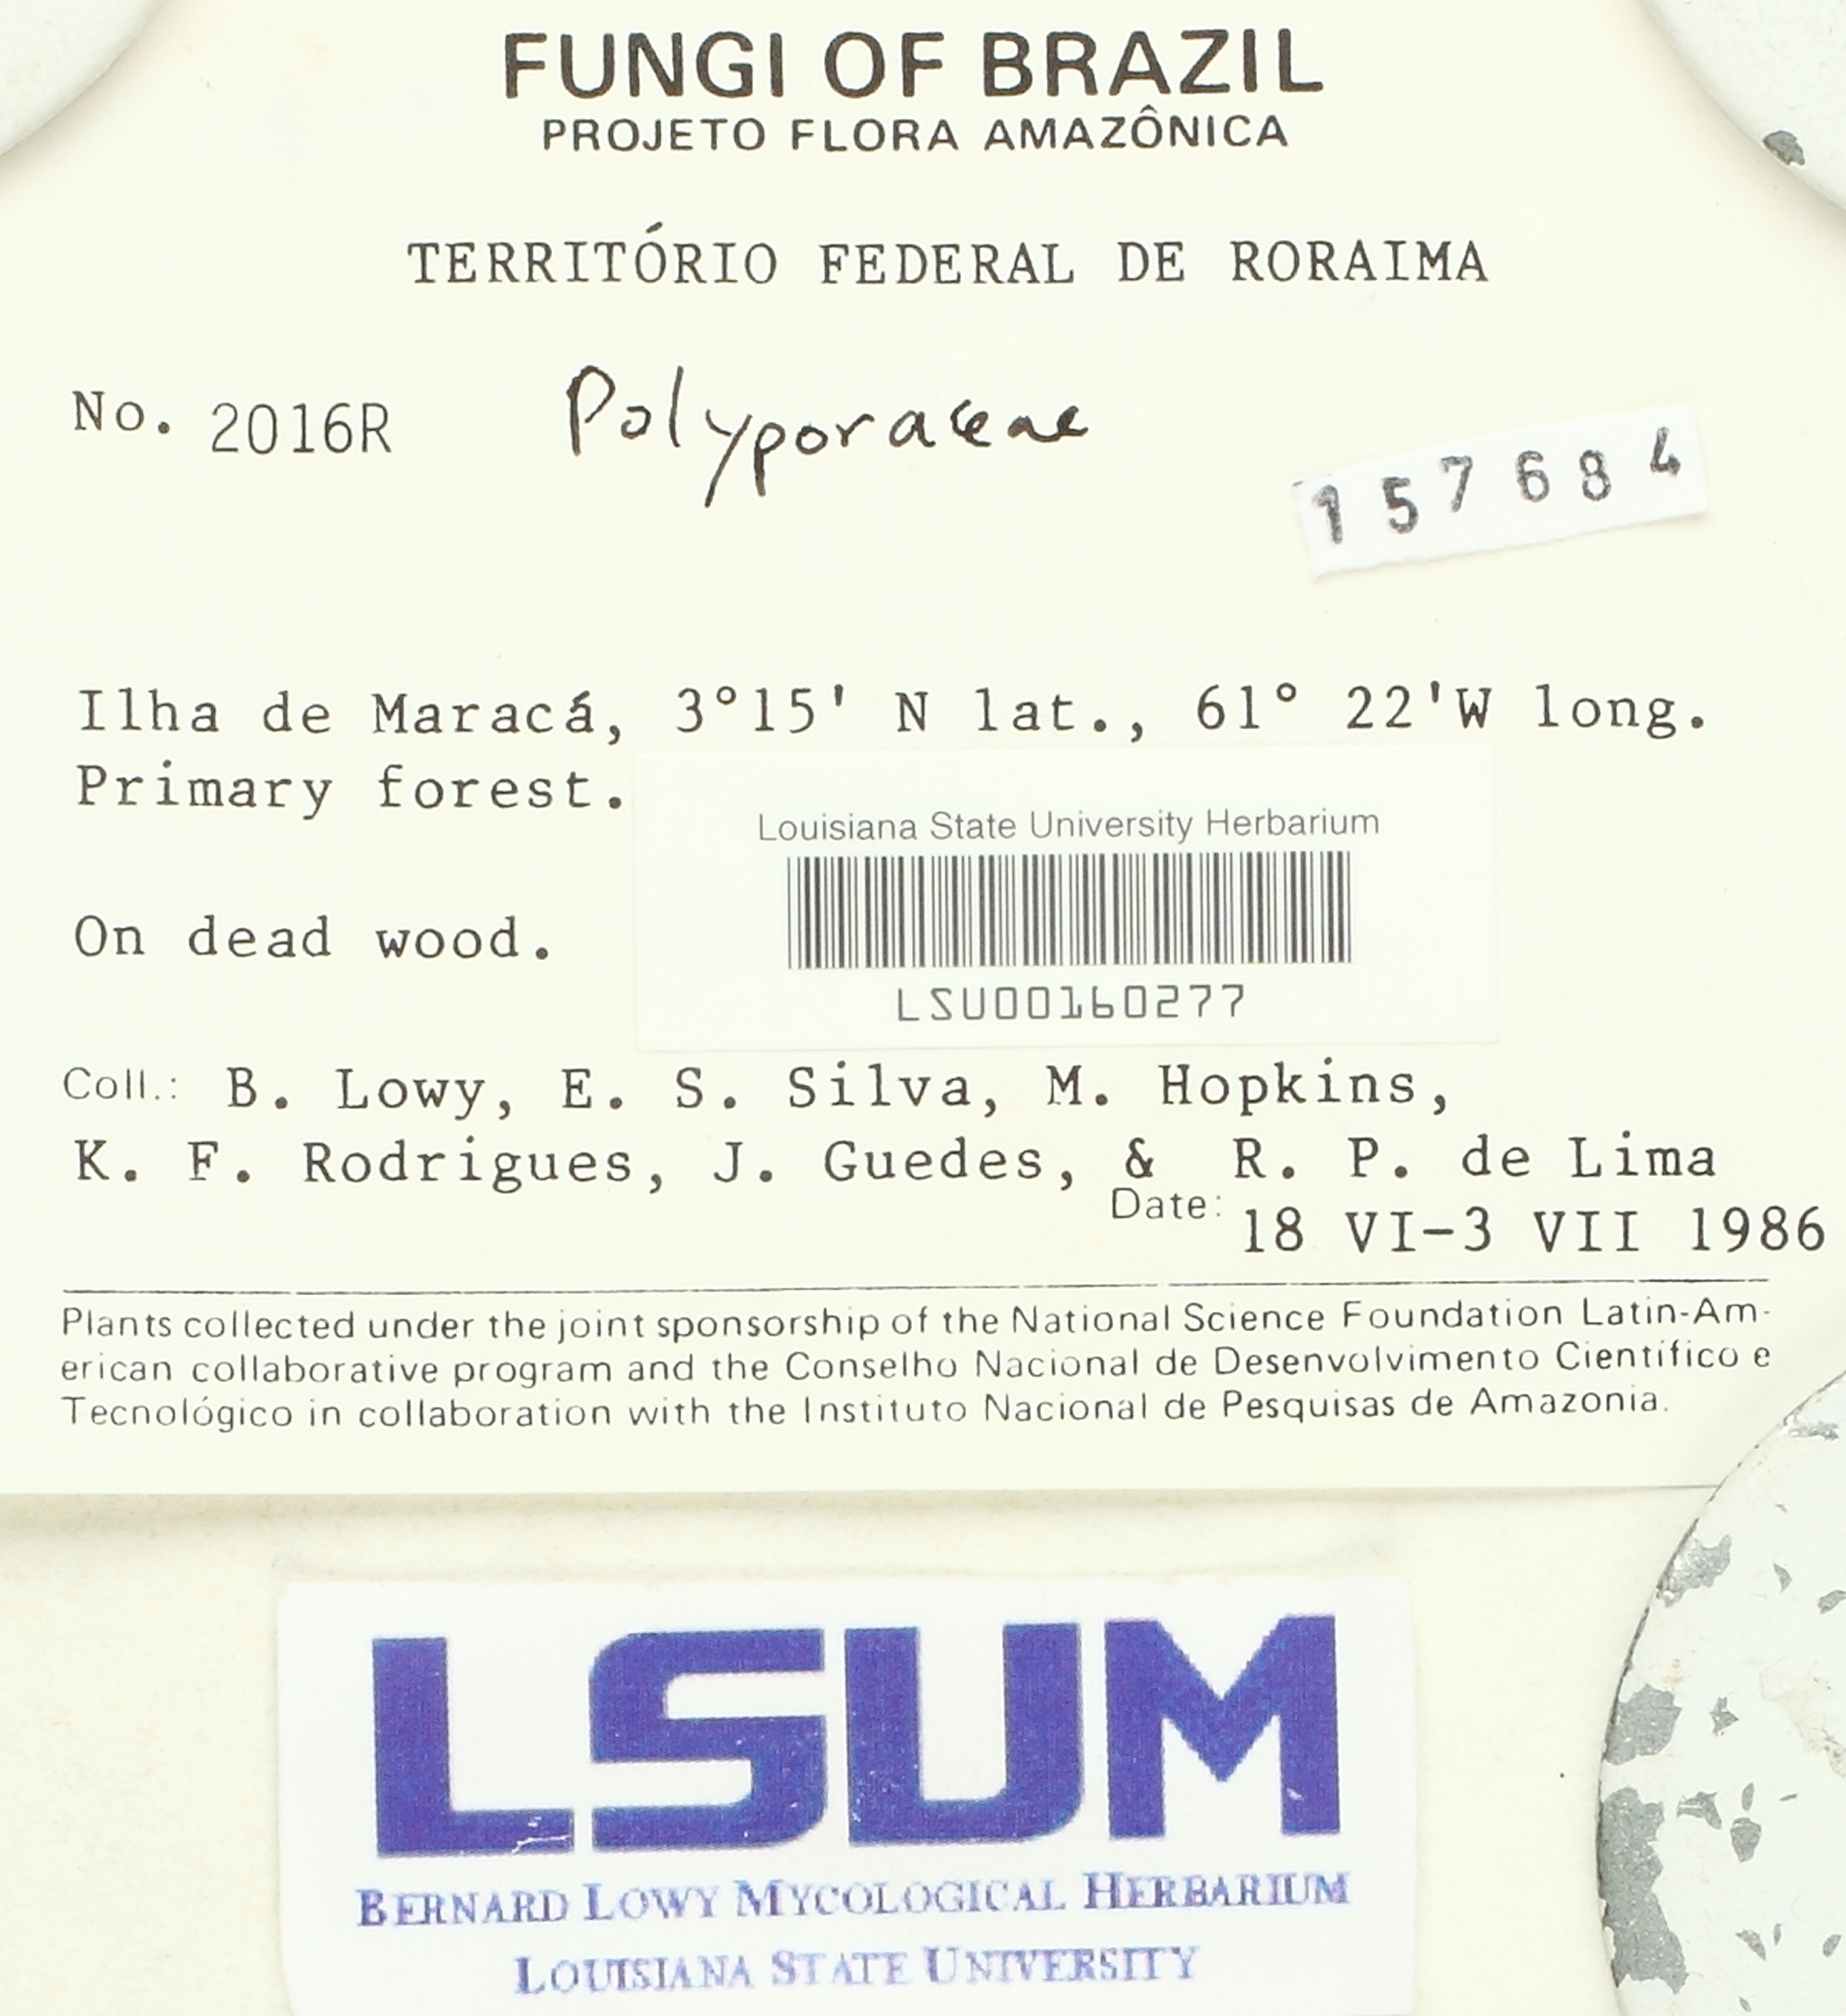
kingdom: Fungi
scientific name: Fungi
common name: Fungi
